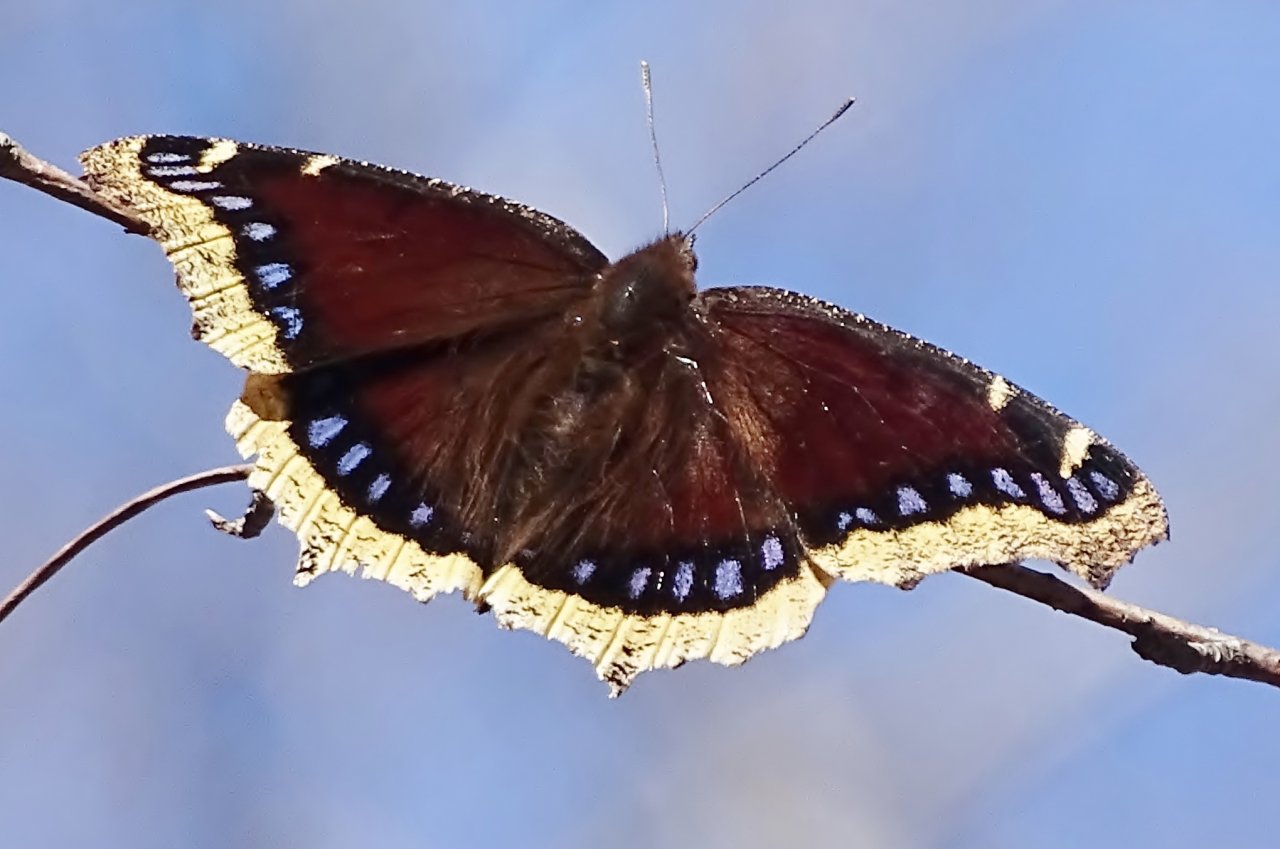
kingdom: Animalia
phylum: Arthropoda
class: Insecta
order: Lepidoptera
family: Nymphalidae
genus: Nymphalis
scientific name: Nymphalis antiopa
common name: Mourning Cloak
